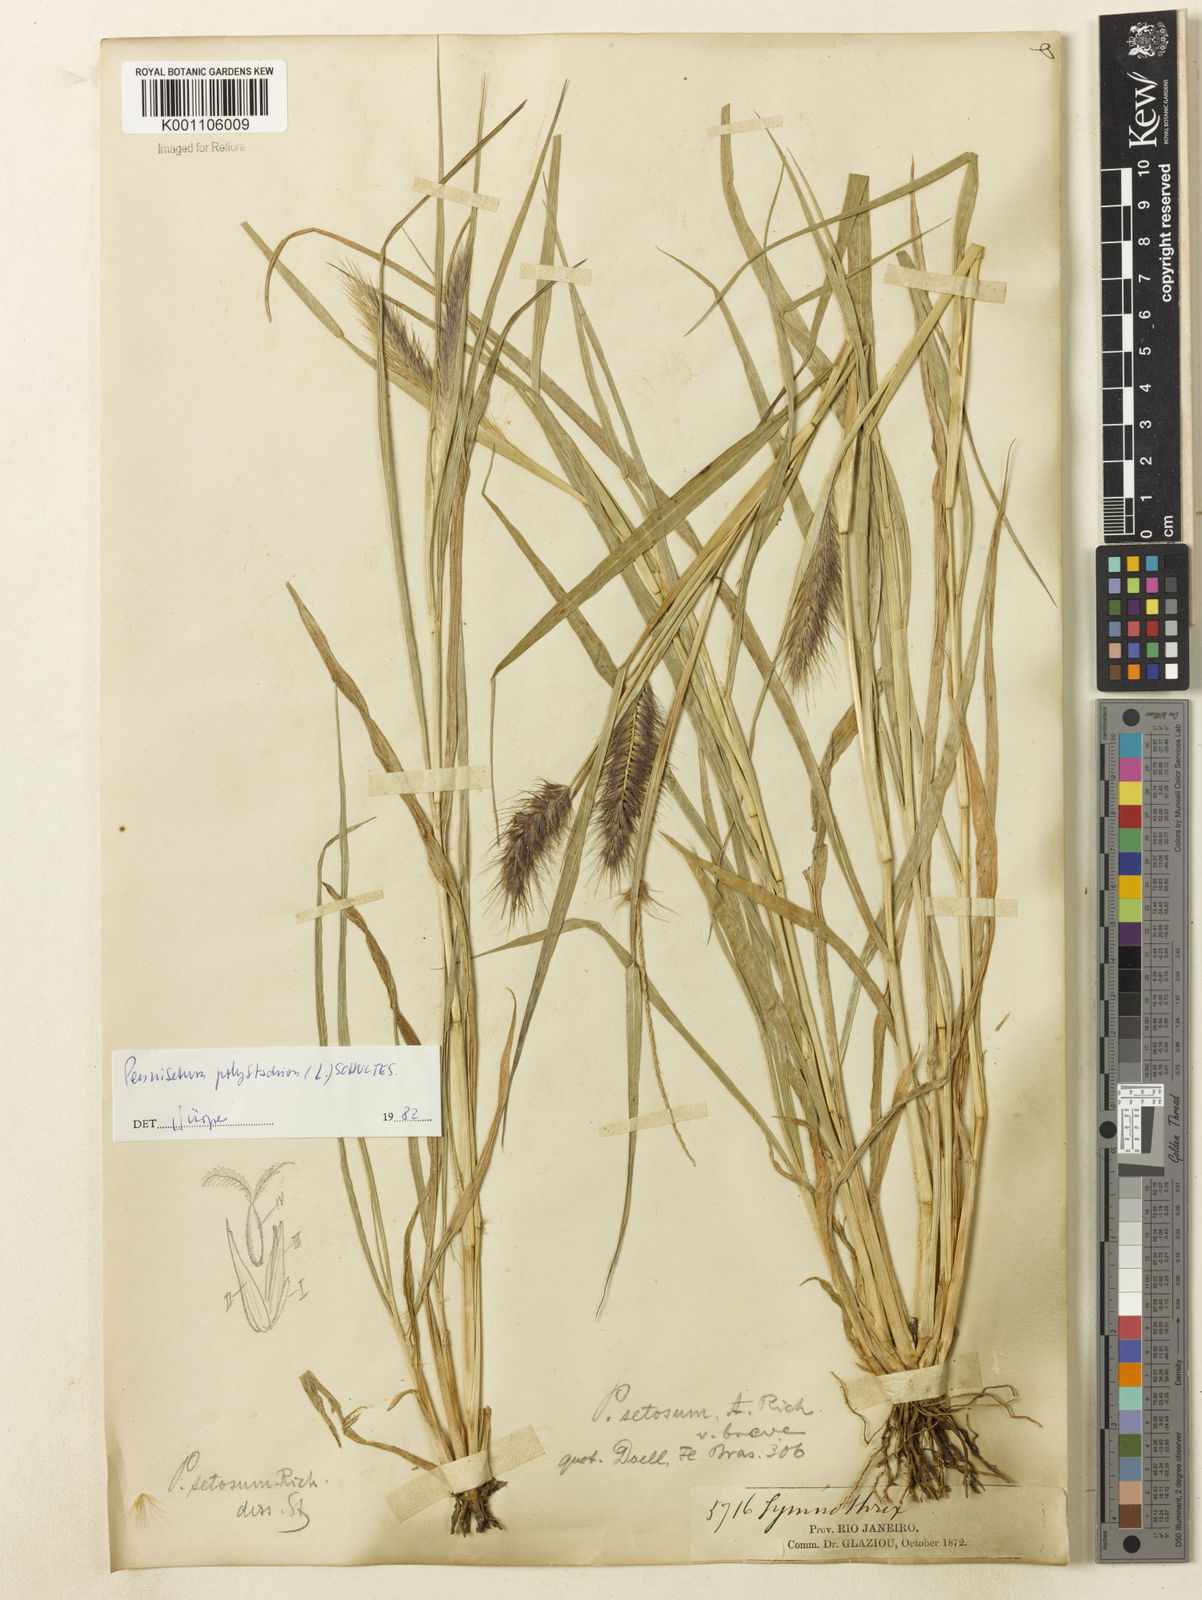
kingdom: Plantae
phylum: Tracheophyta
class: Liliopsida
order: Poales
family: Poaceae
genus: Setaria
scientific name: Setaria parviflora
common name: Knotroot bristle-grass
